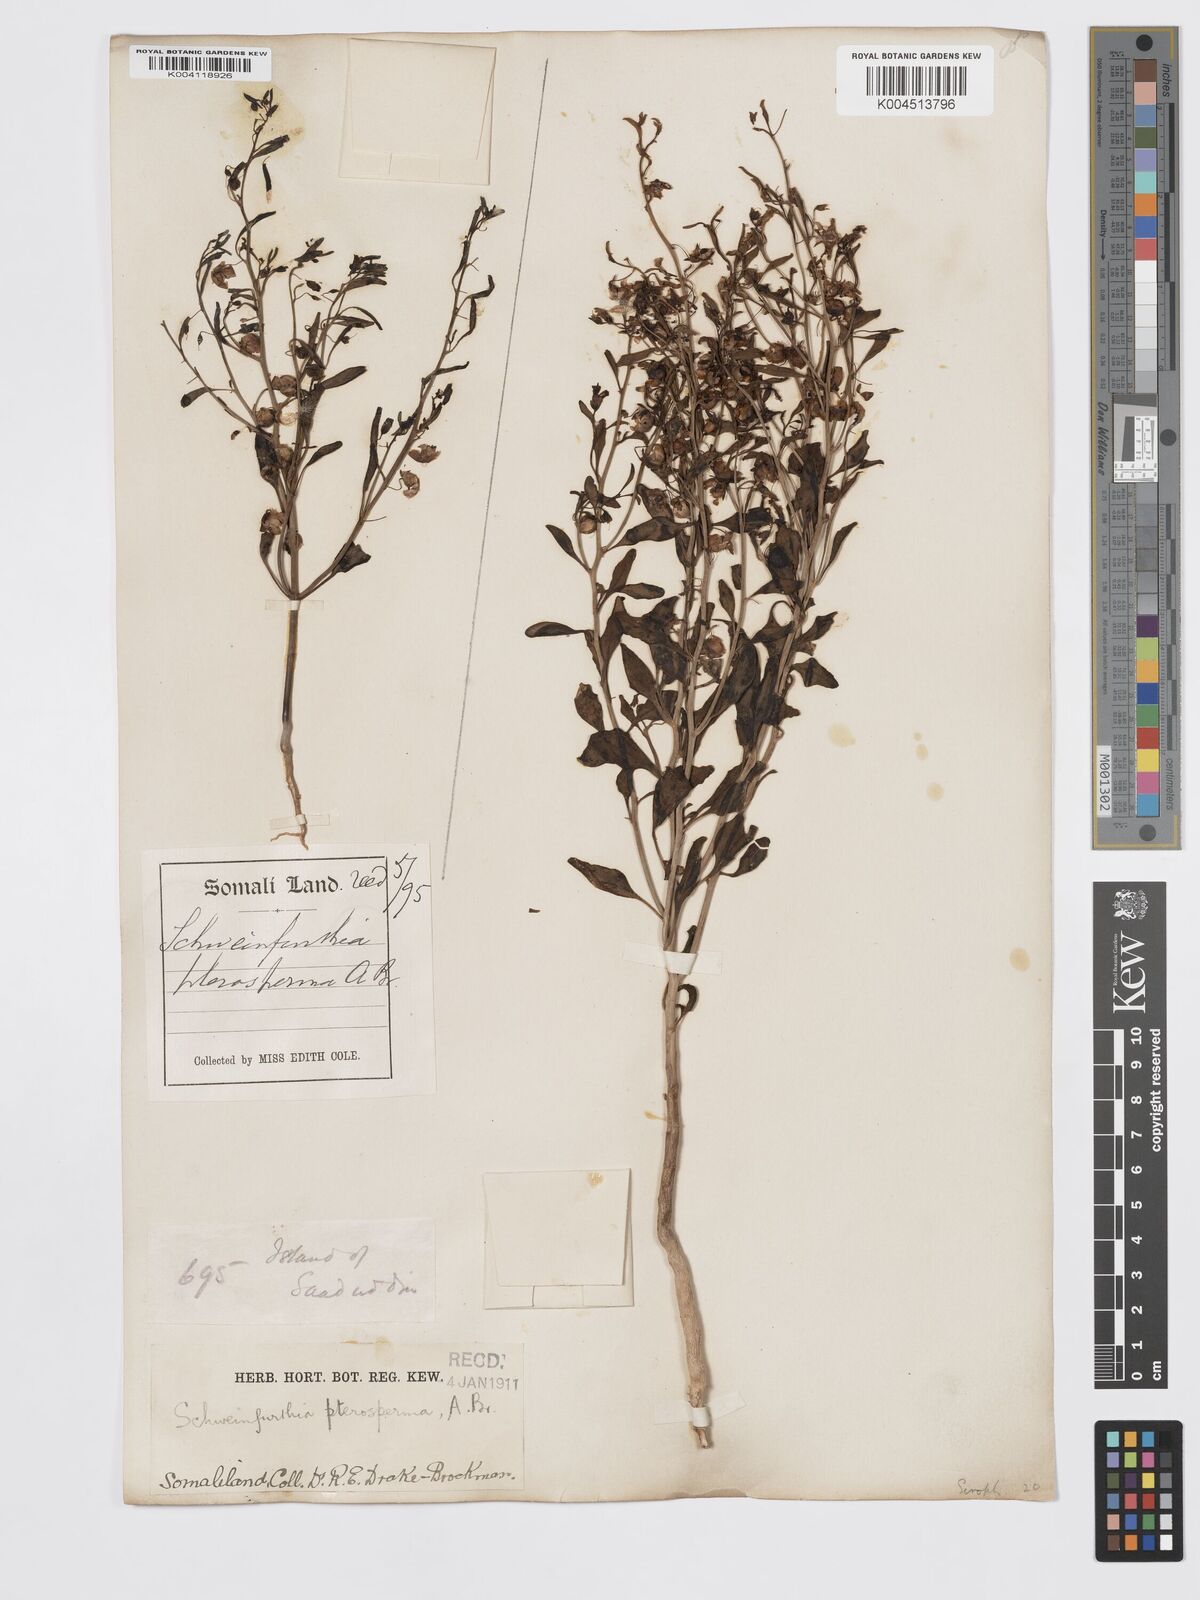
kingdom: Plantae
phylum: Tracheophyta
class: Magnoliopsida
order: Lamiales
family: Plantaginaceae
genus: Schweinfurthia
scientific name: Schweinfurthia pterosperma
